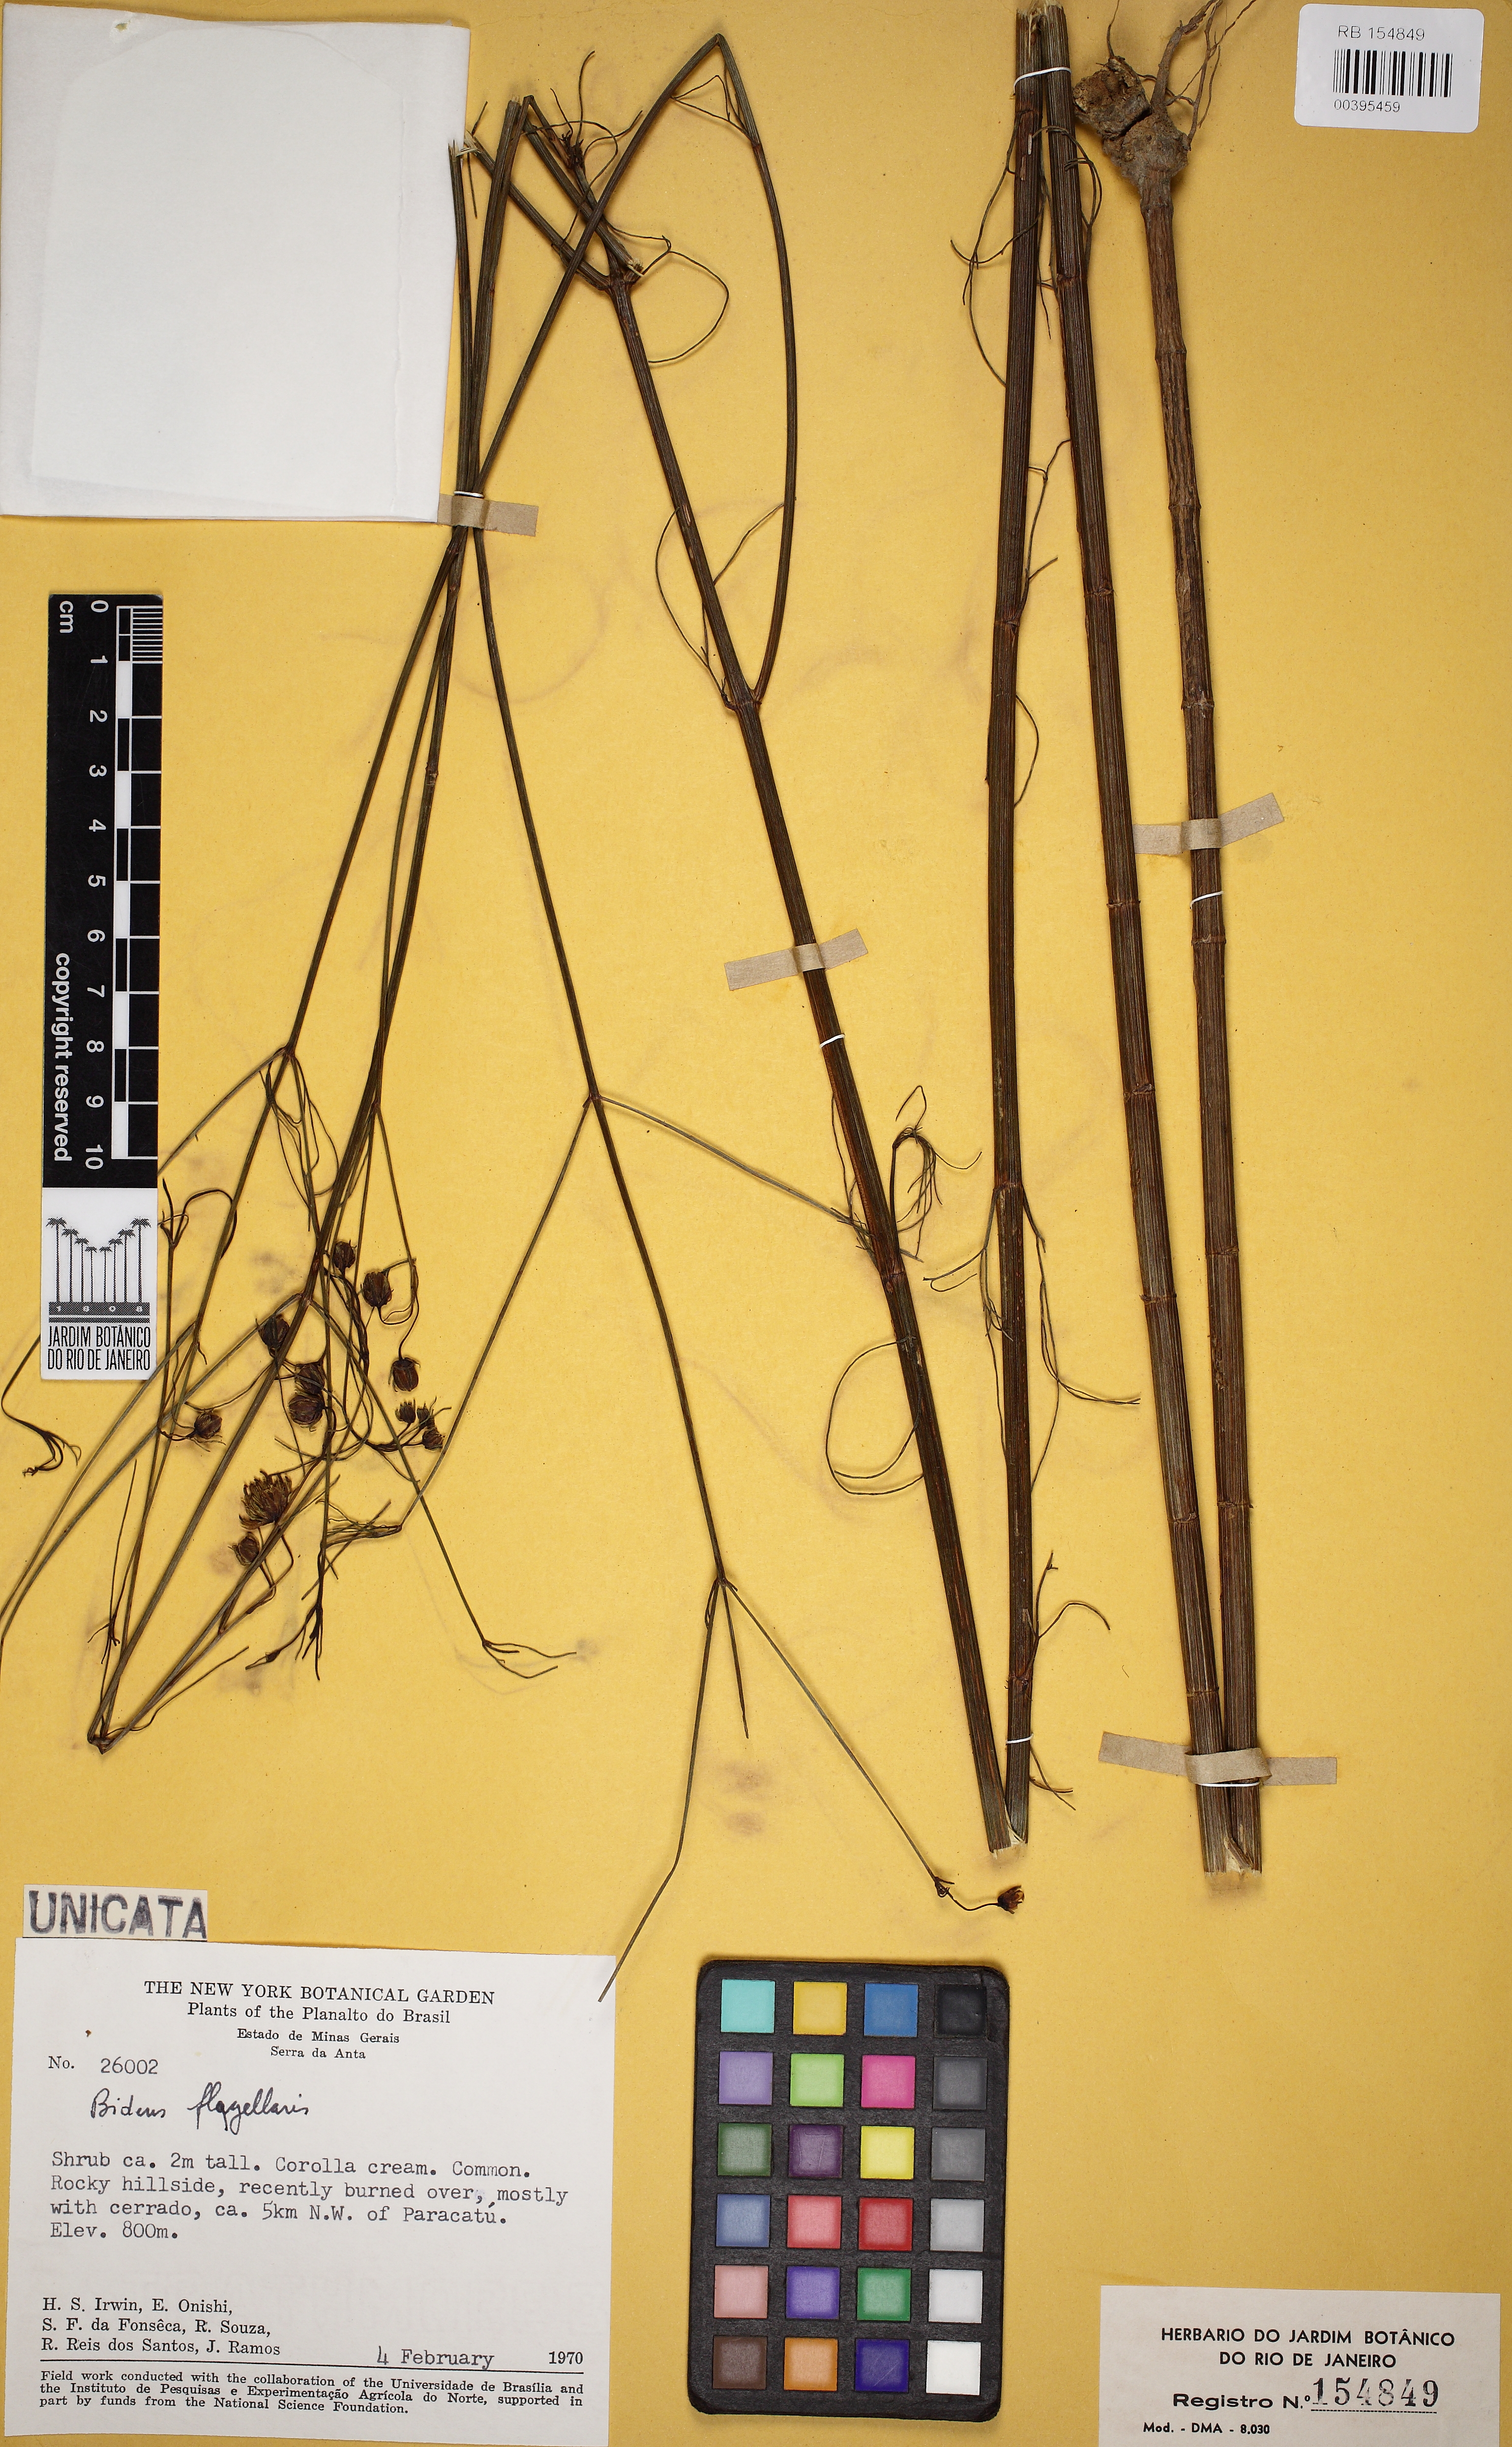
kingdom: Plantae
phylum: Tracheophyta
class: Magnoliopsida
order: Asterales
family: Asteraceae
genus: Bidens
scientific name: Bidens flagellaris
